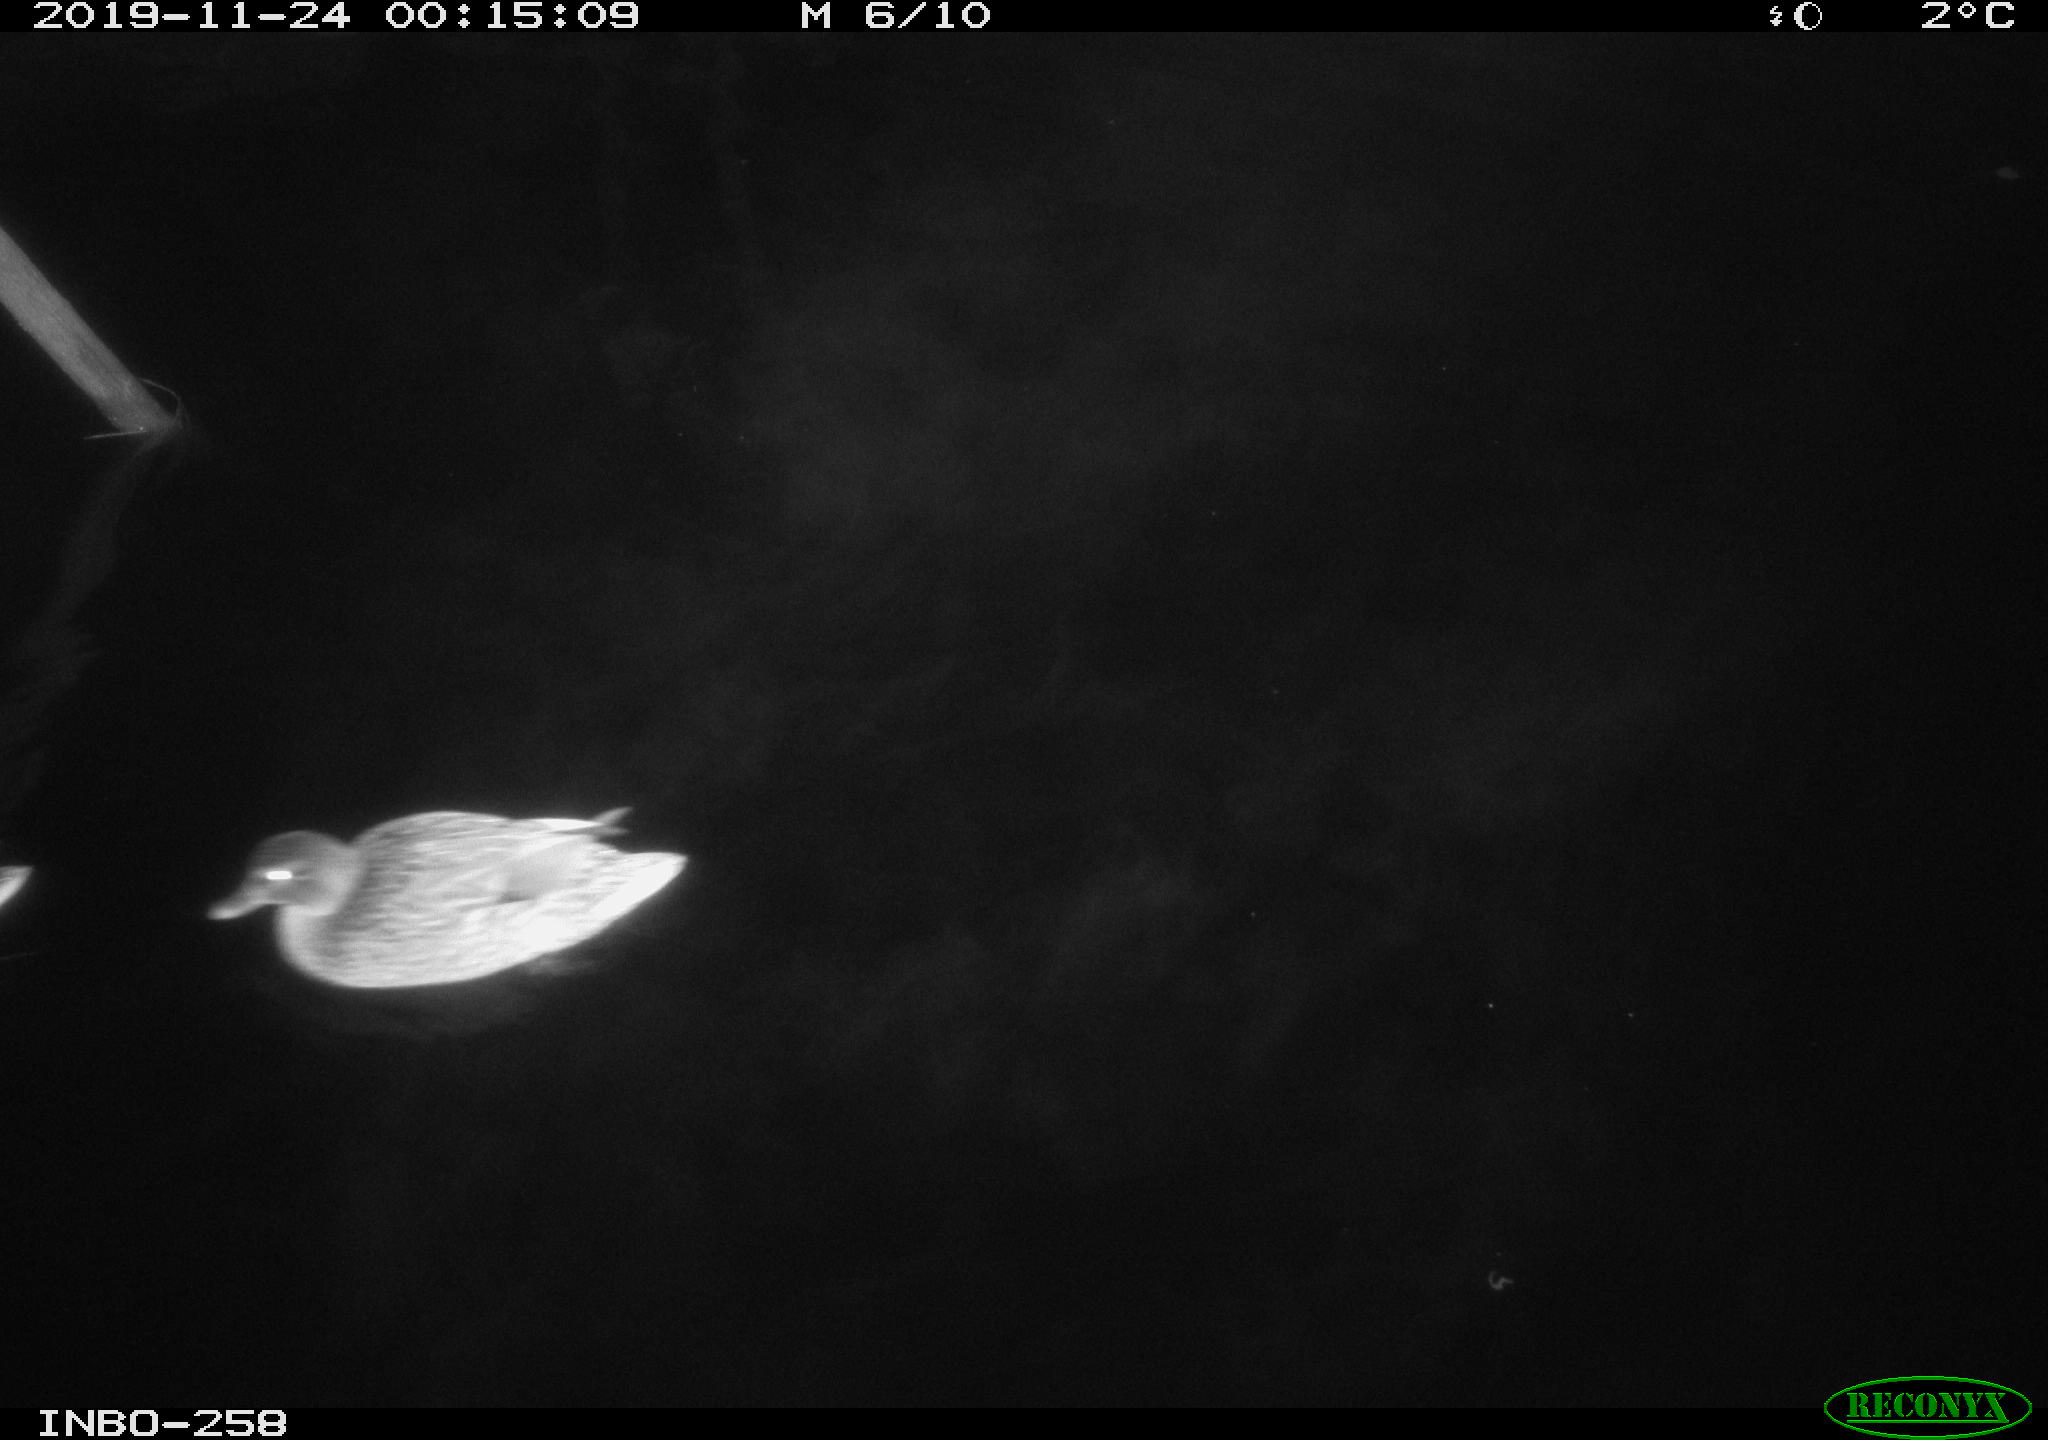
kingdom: Animalia
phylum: Chordata
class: Aves
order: Anseriformes
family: Anatidae
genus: Anas
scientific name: Anas platyrhynchos
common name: Mallard
